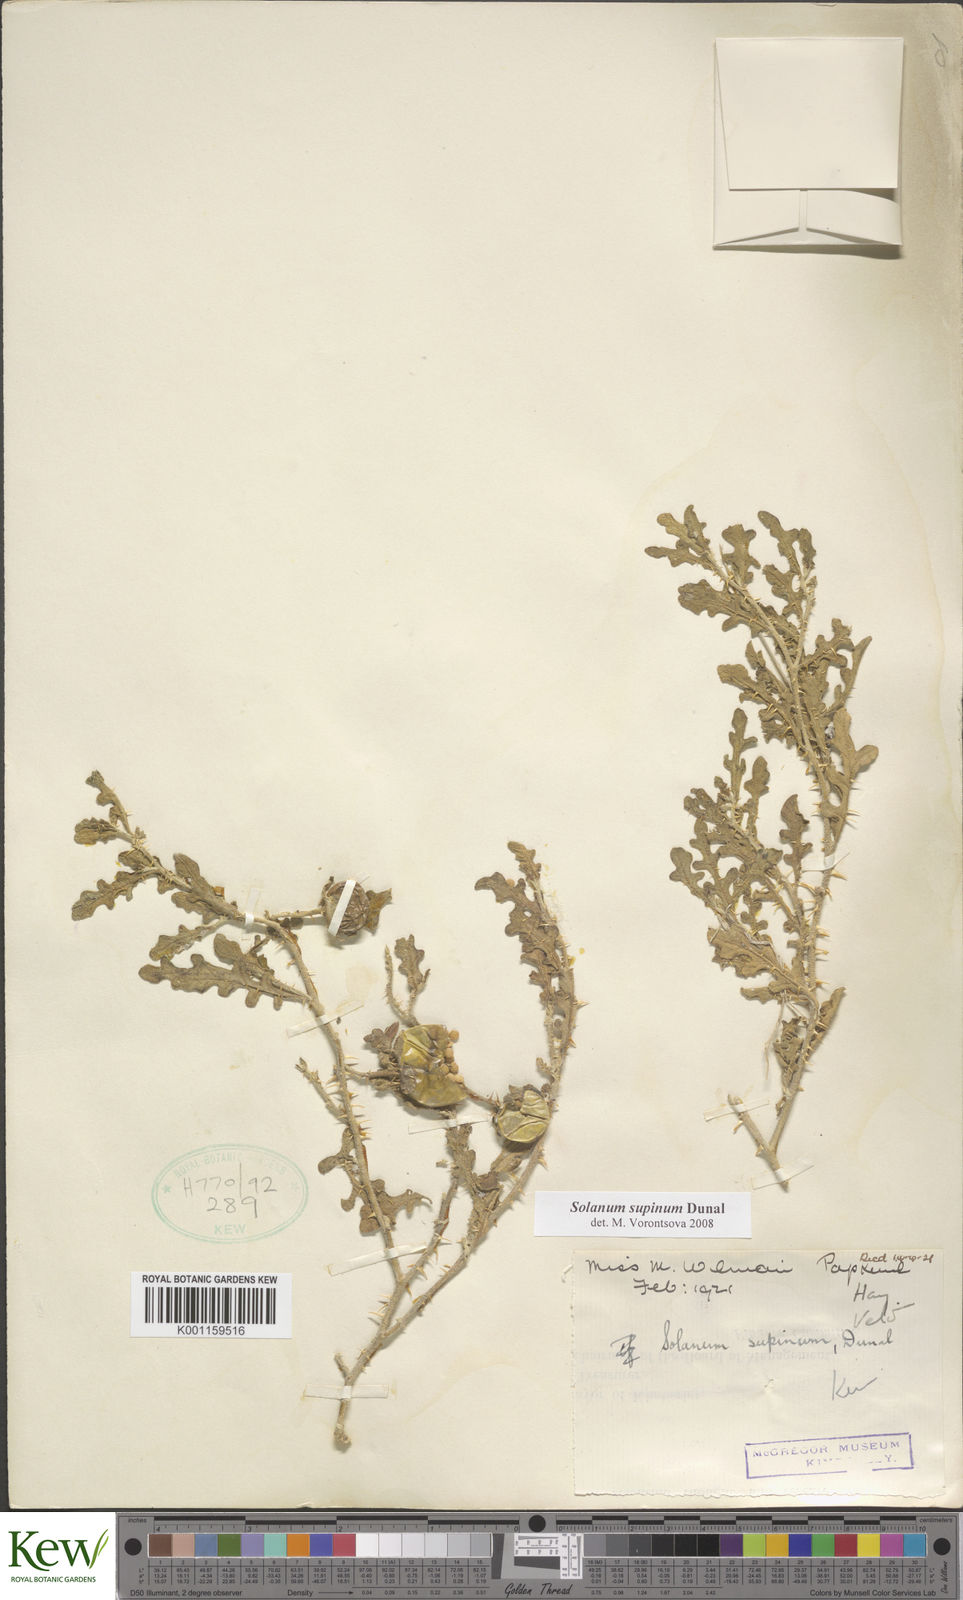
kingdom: Plantae
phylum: Tracheophyta
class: Magnoliopsida
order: Solanales
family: Solanaceae
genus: Solanum
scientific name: Solanum supinum
